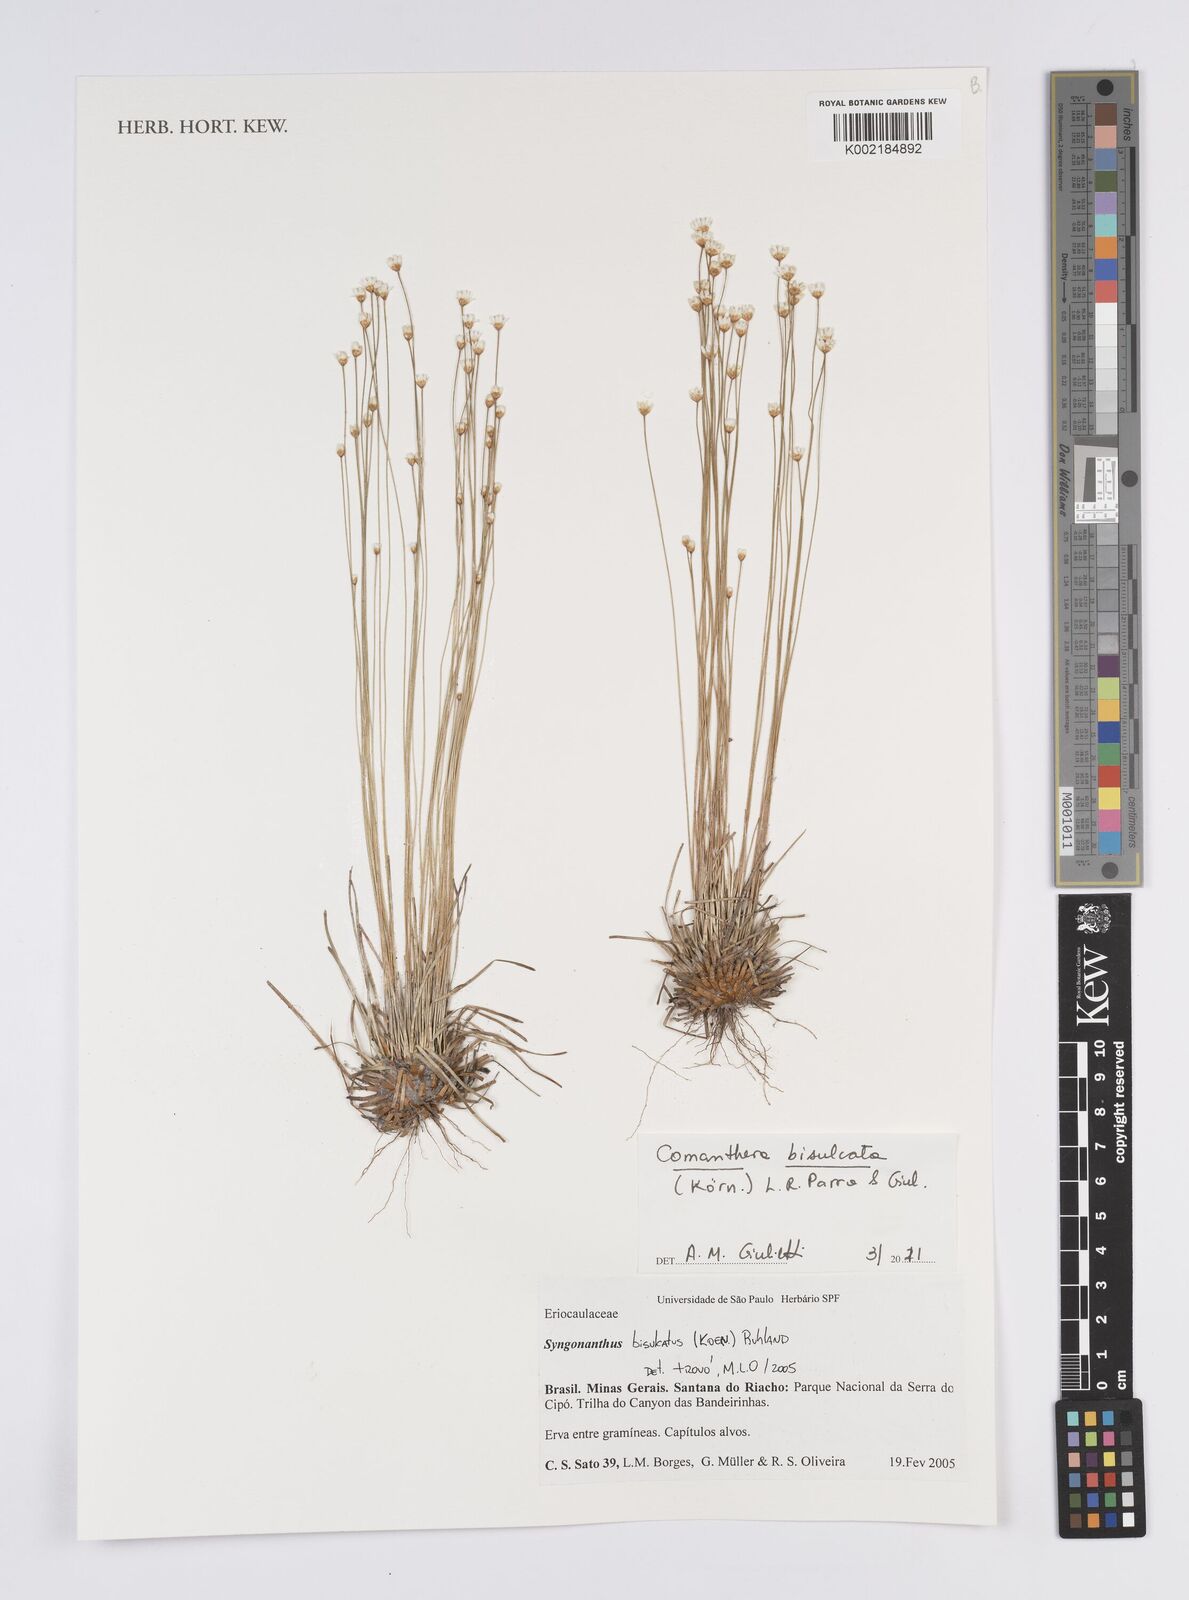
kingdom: Plantae
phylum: Tracheophyta
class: Liliopsida
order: Poales
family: Eriocaulaceae
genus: Comanthera
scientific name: Comanthera bisulcata
